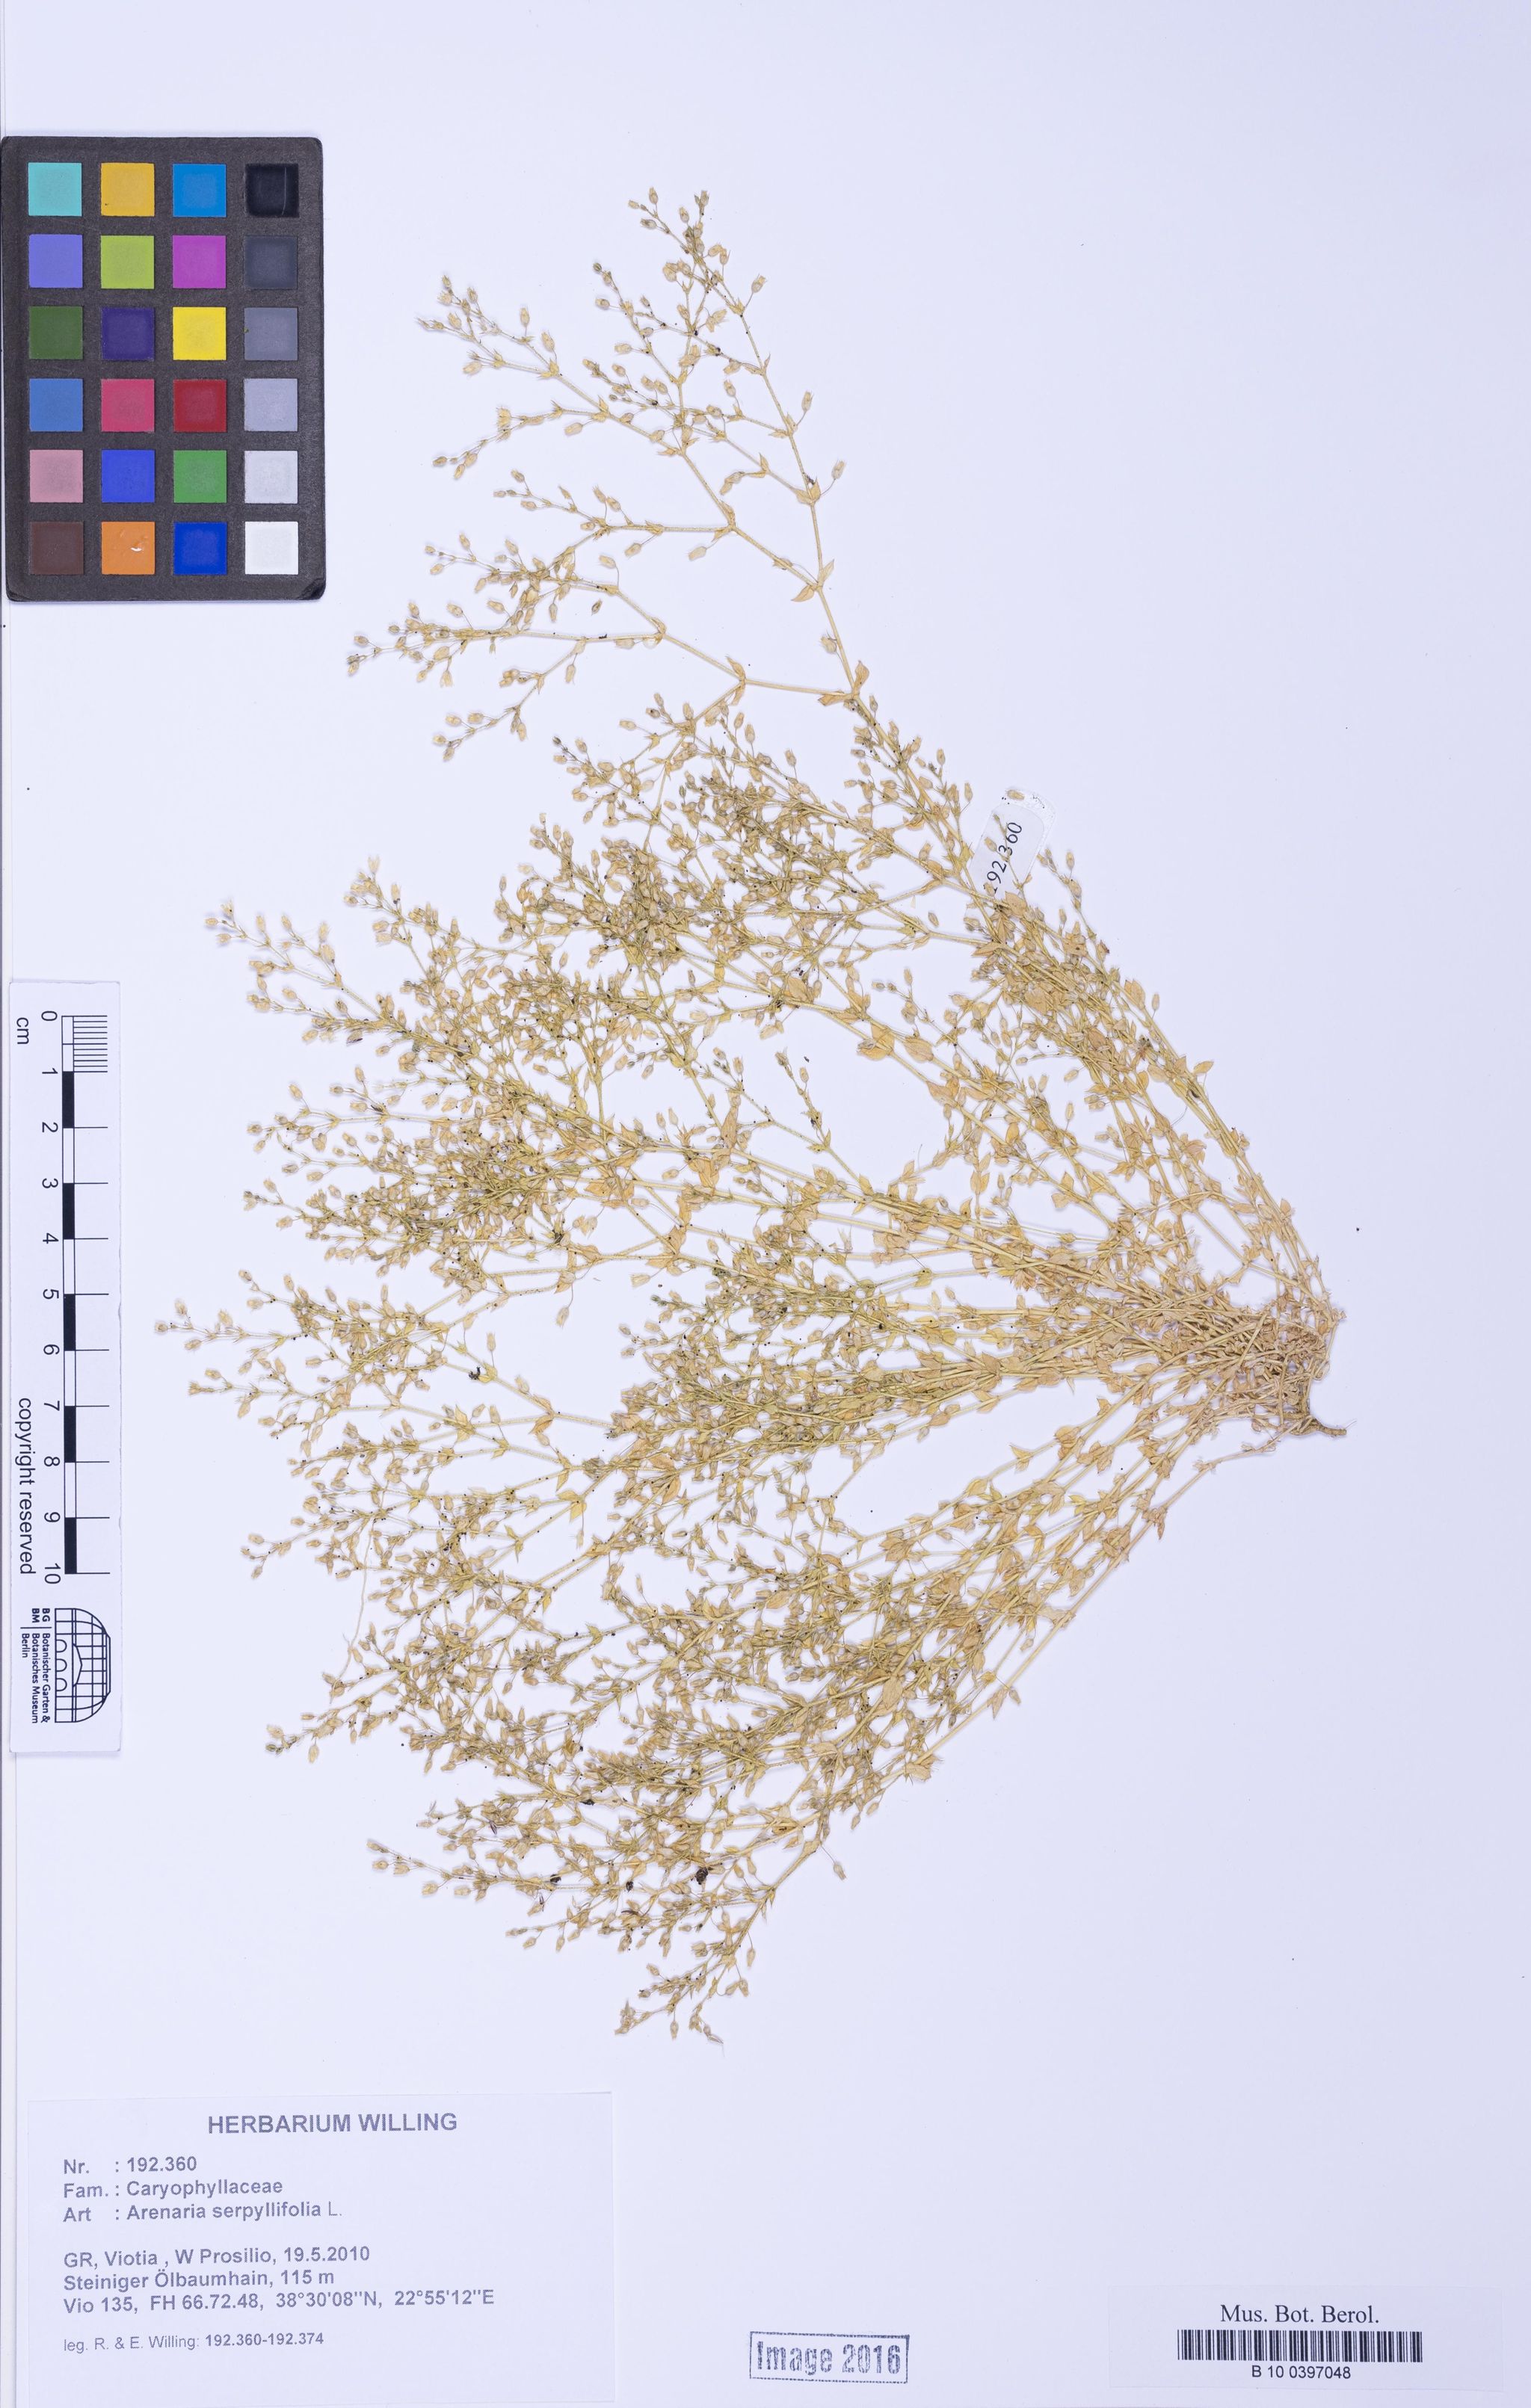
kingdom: Plantae
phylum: Tracheophyta
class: Magnoliopsida
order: Caryophyllales
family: Caryophyllaceae
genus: Arenaria
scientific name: Arenaria serpyllifolia
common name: Thyme-leaved sandwort
